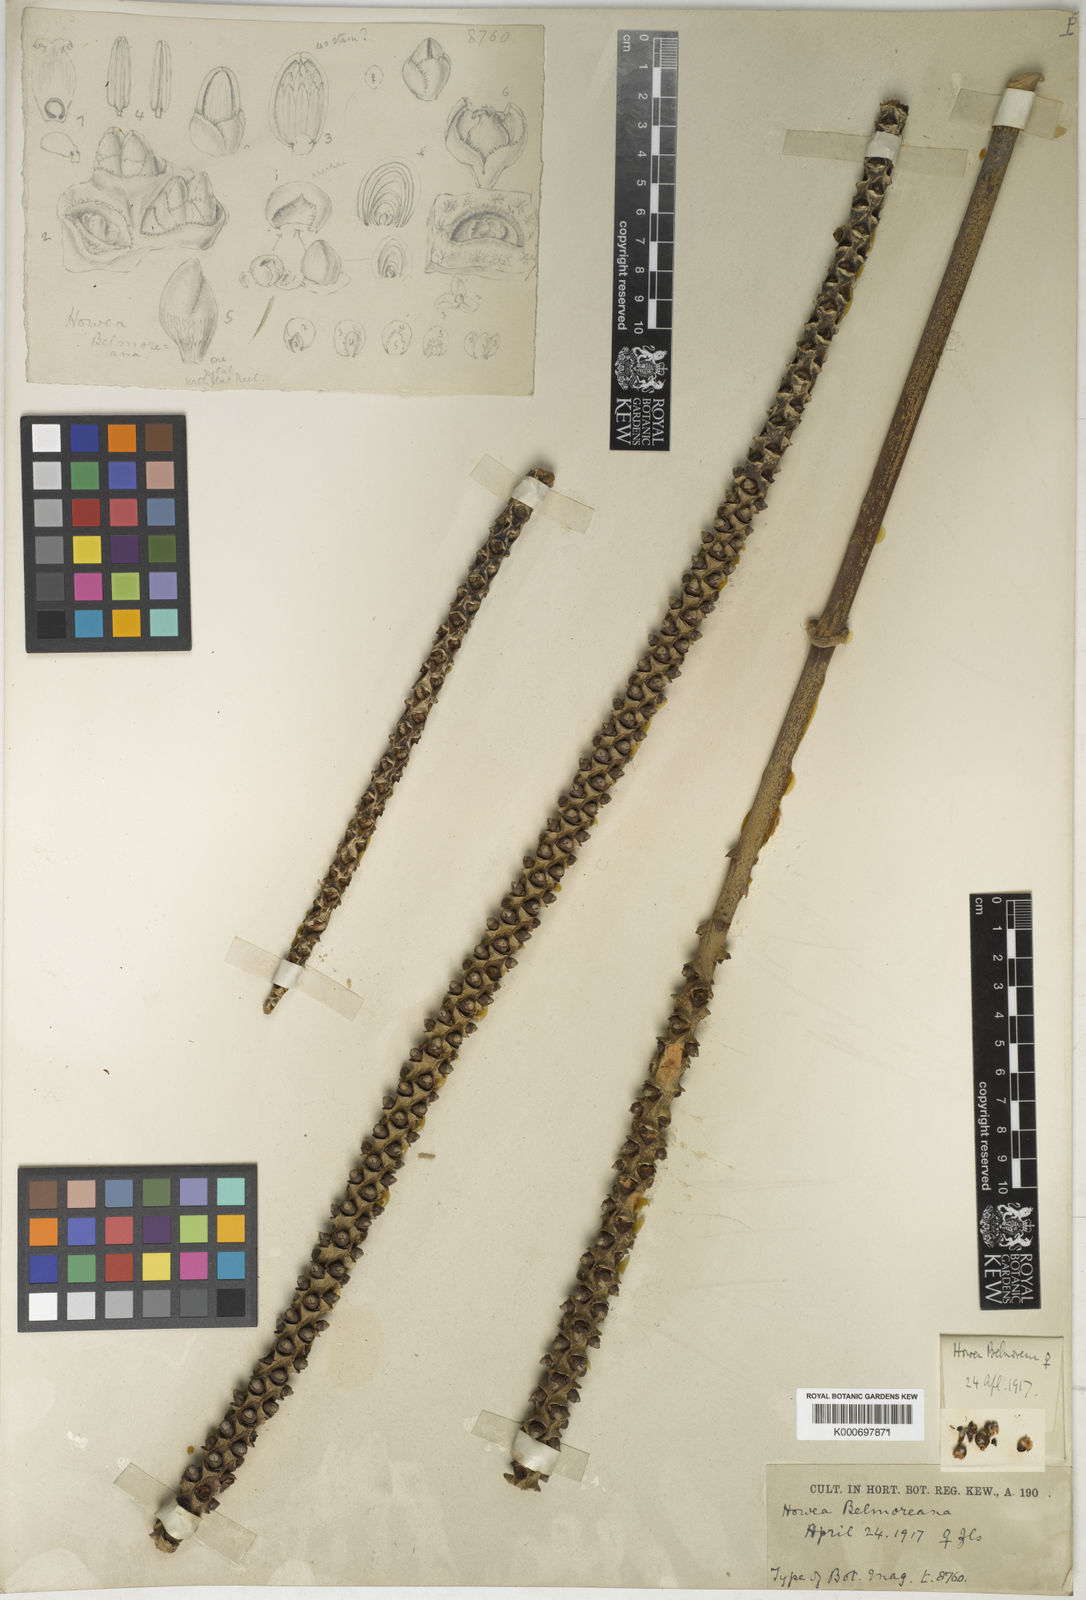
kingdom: Plantae
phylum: Tracheophyta
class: Liliopsida
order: Arecales
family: Arecaceae
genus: Howea
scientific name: Howea belmoreana
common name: Curly palm
